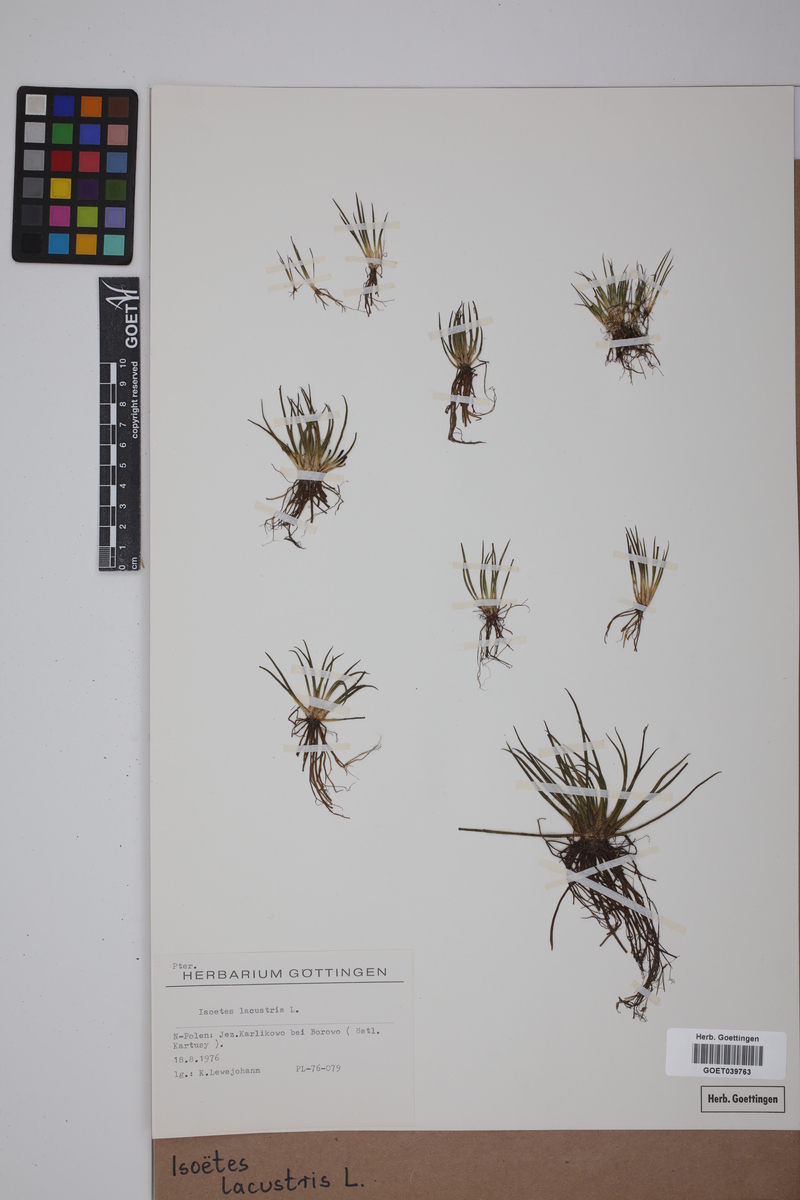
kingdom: Plantae
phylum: Tracheophyta
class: Lycopodiopsida
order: Isoetales
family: Isoetaceae
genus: Isoetes
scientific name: Isoetes lacustris
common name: Common quillwort
